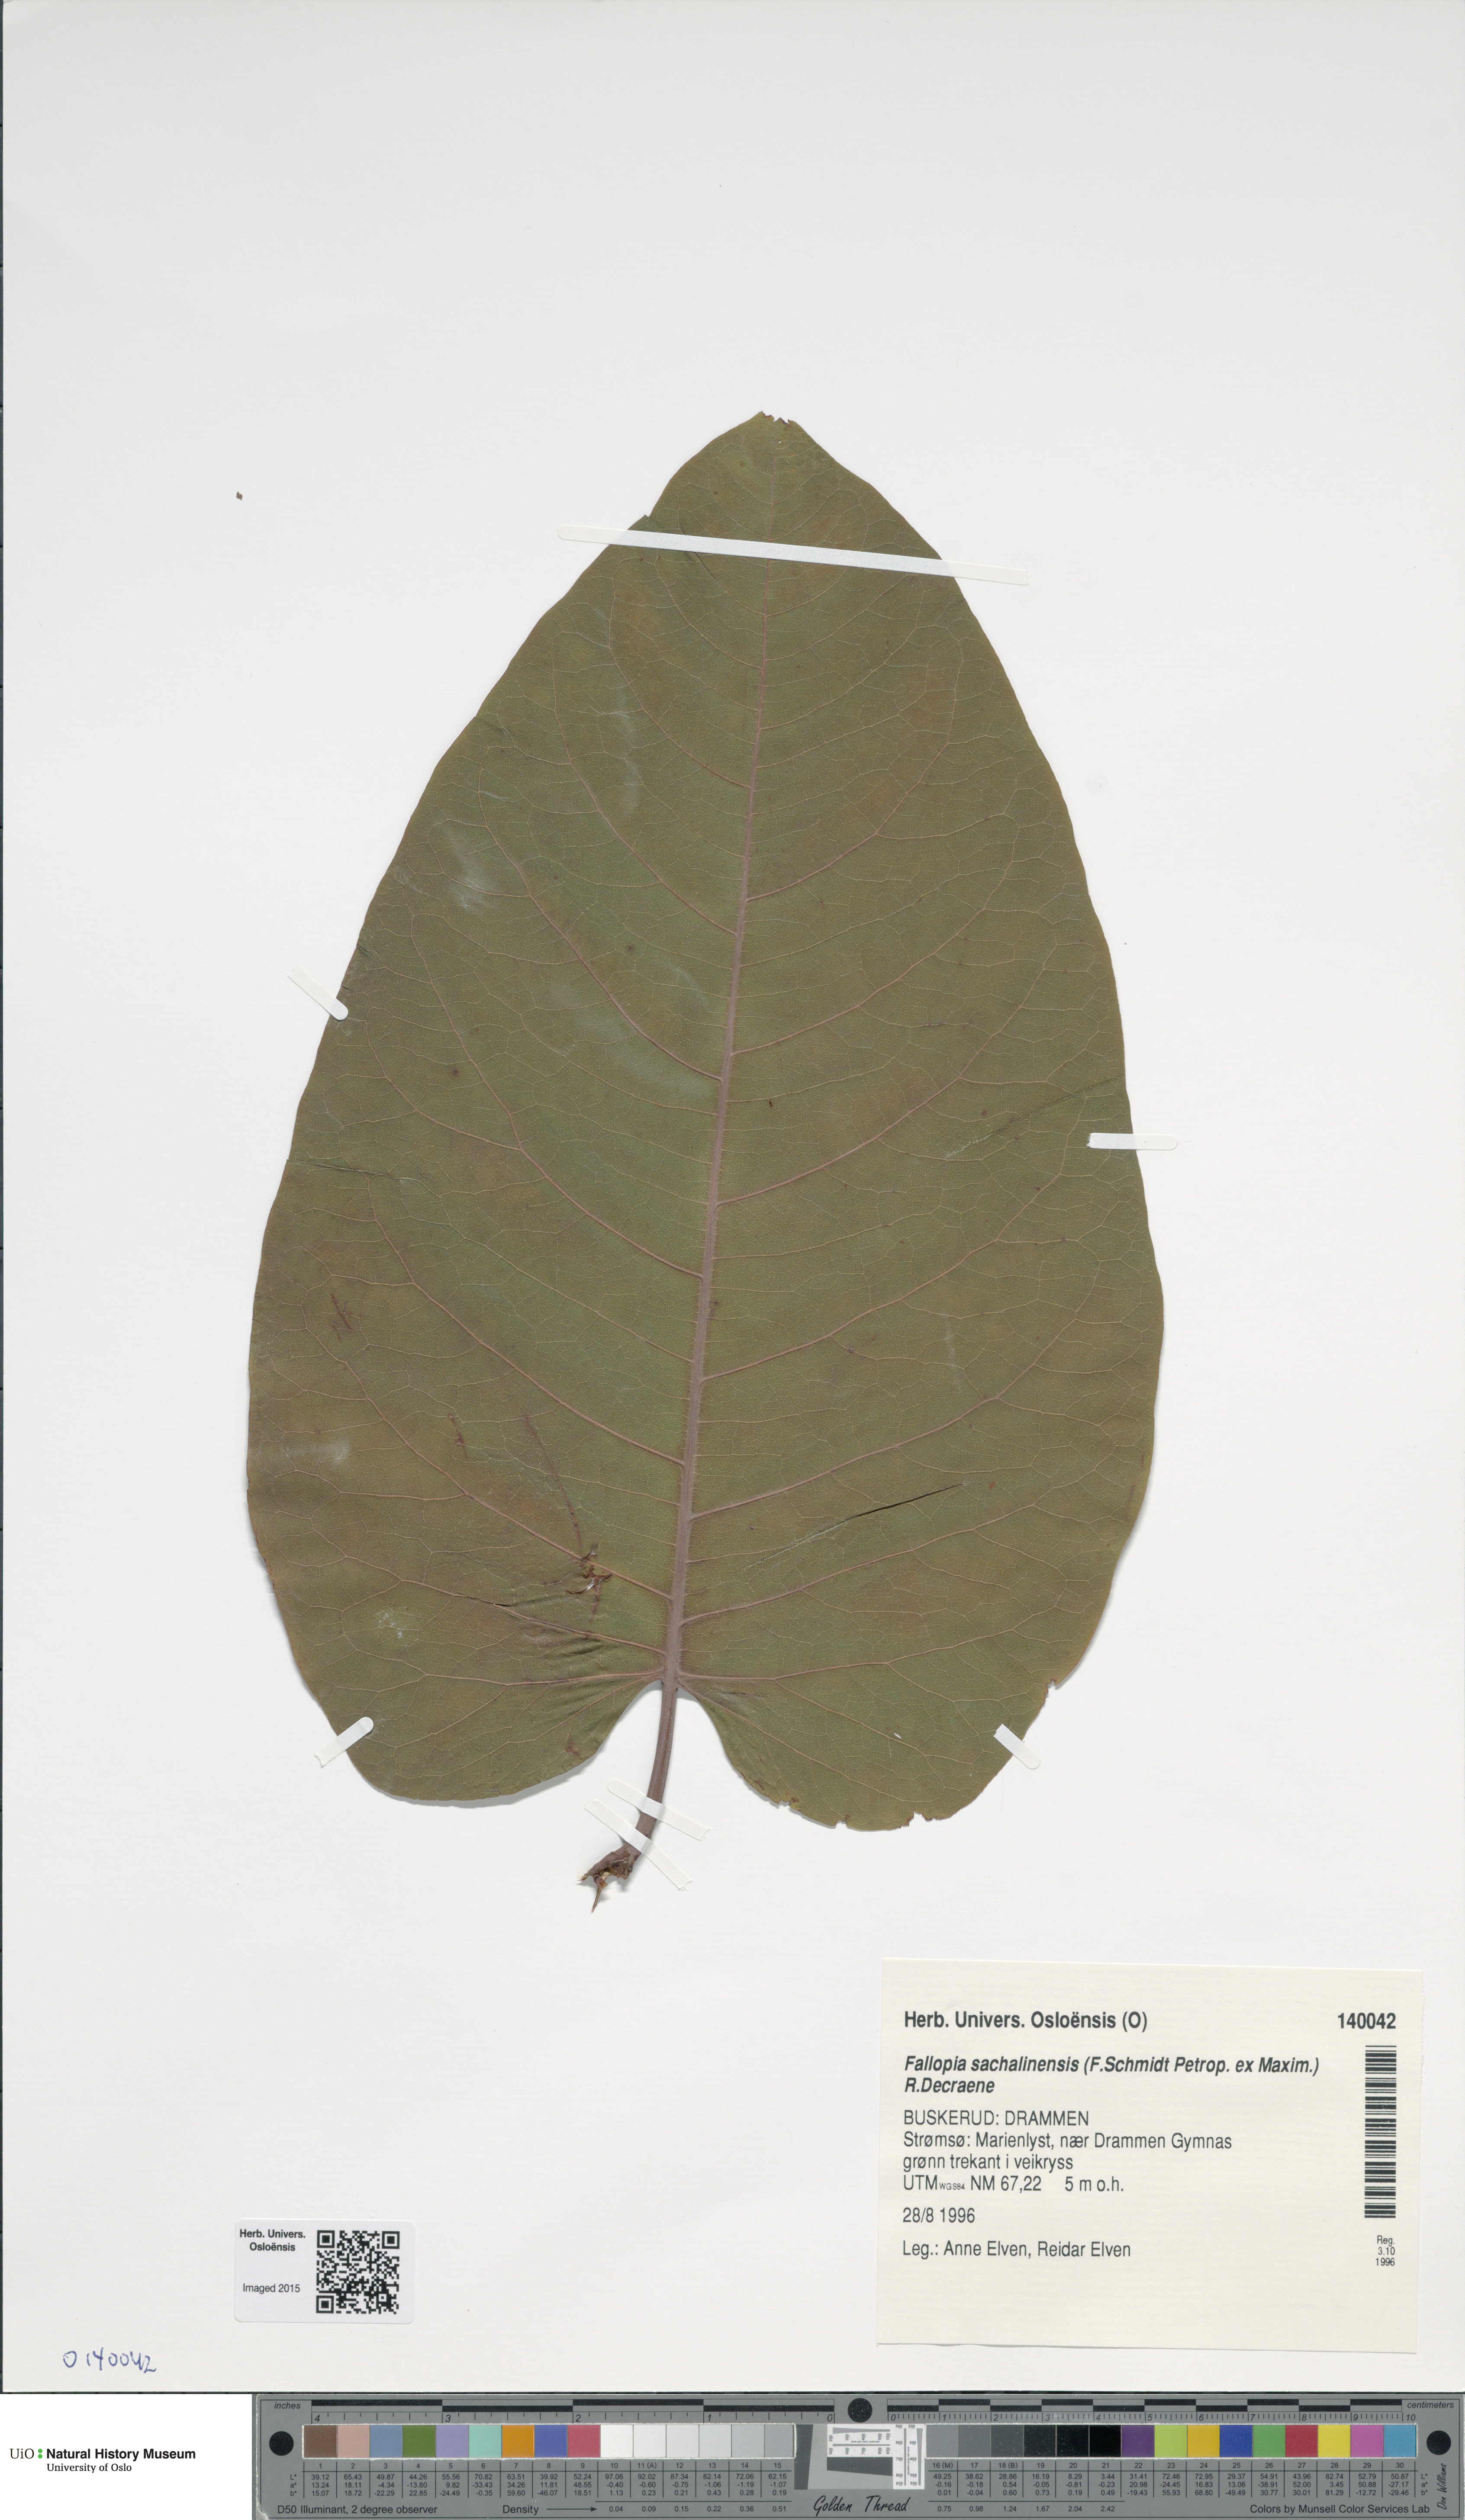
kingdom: Plantae
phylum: Tracheophyta
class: Magnoliopsida
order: Caryophyllales
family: Polygonaceae
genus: Reynoutria
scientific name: Reynoutria sachalinensis
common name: Giant knotweed
